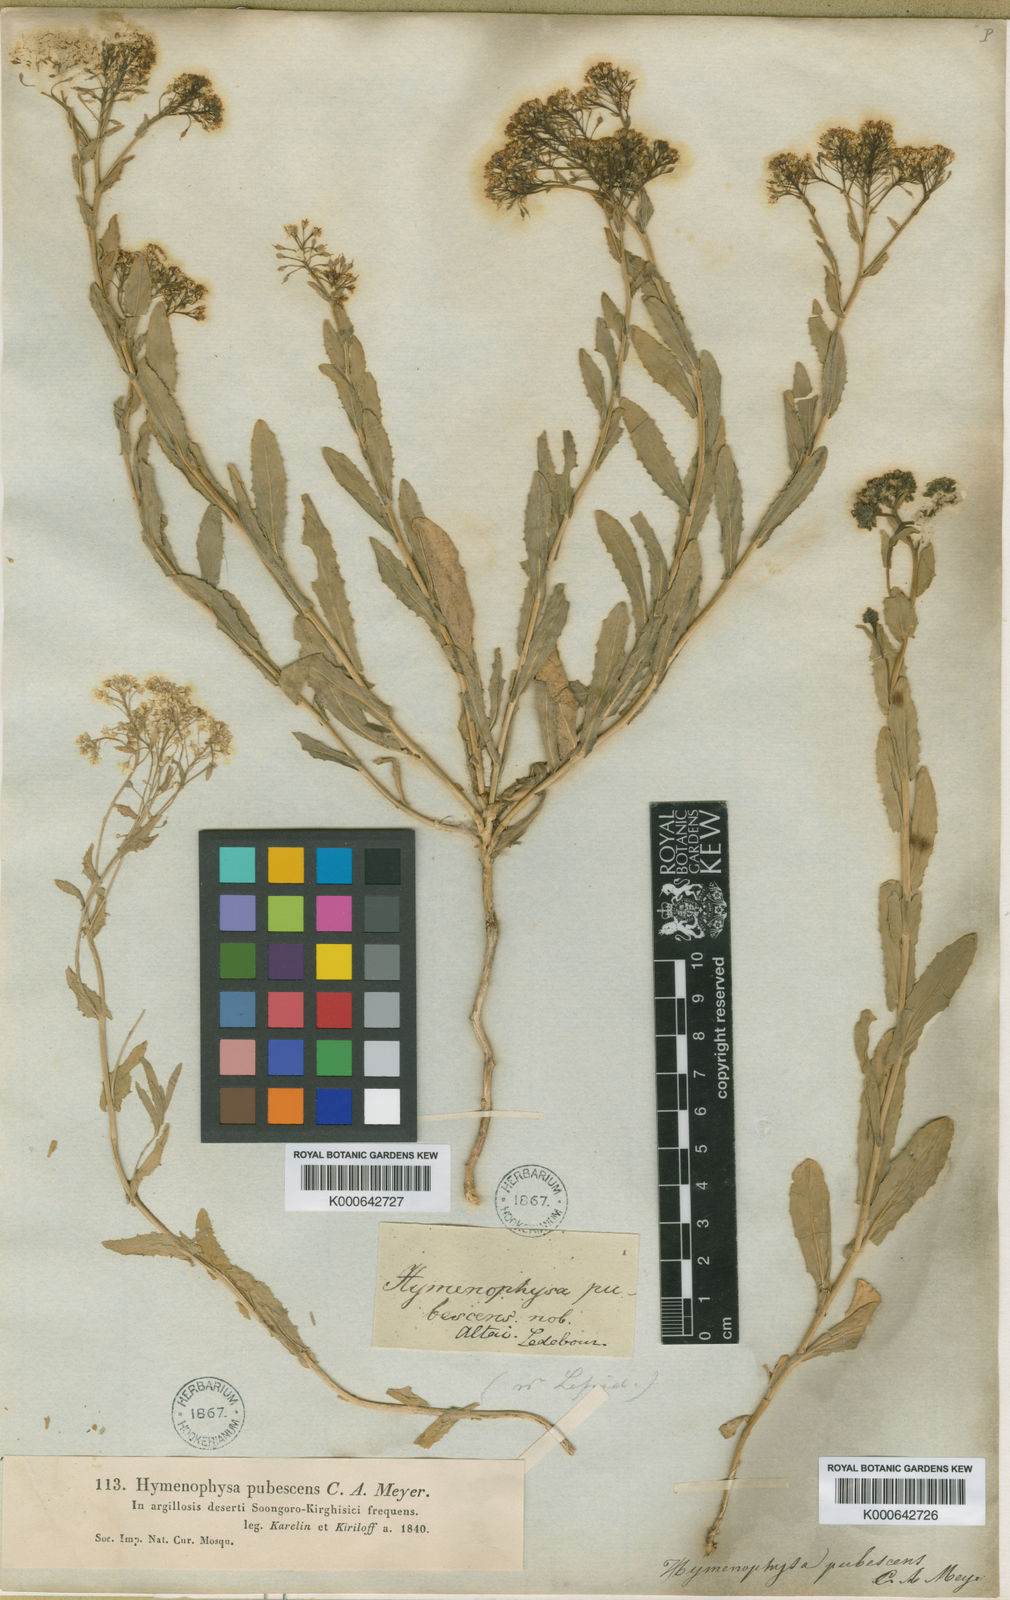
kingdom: Plantae
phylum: Tracheophyta
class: Magnoliopsida
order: Brassicales
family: Brassicaceae
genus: Lepidium
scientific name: Lepidium pubescens
